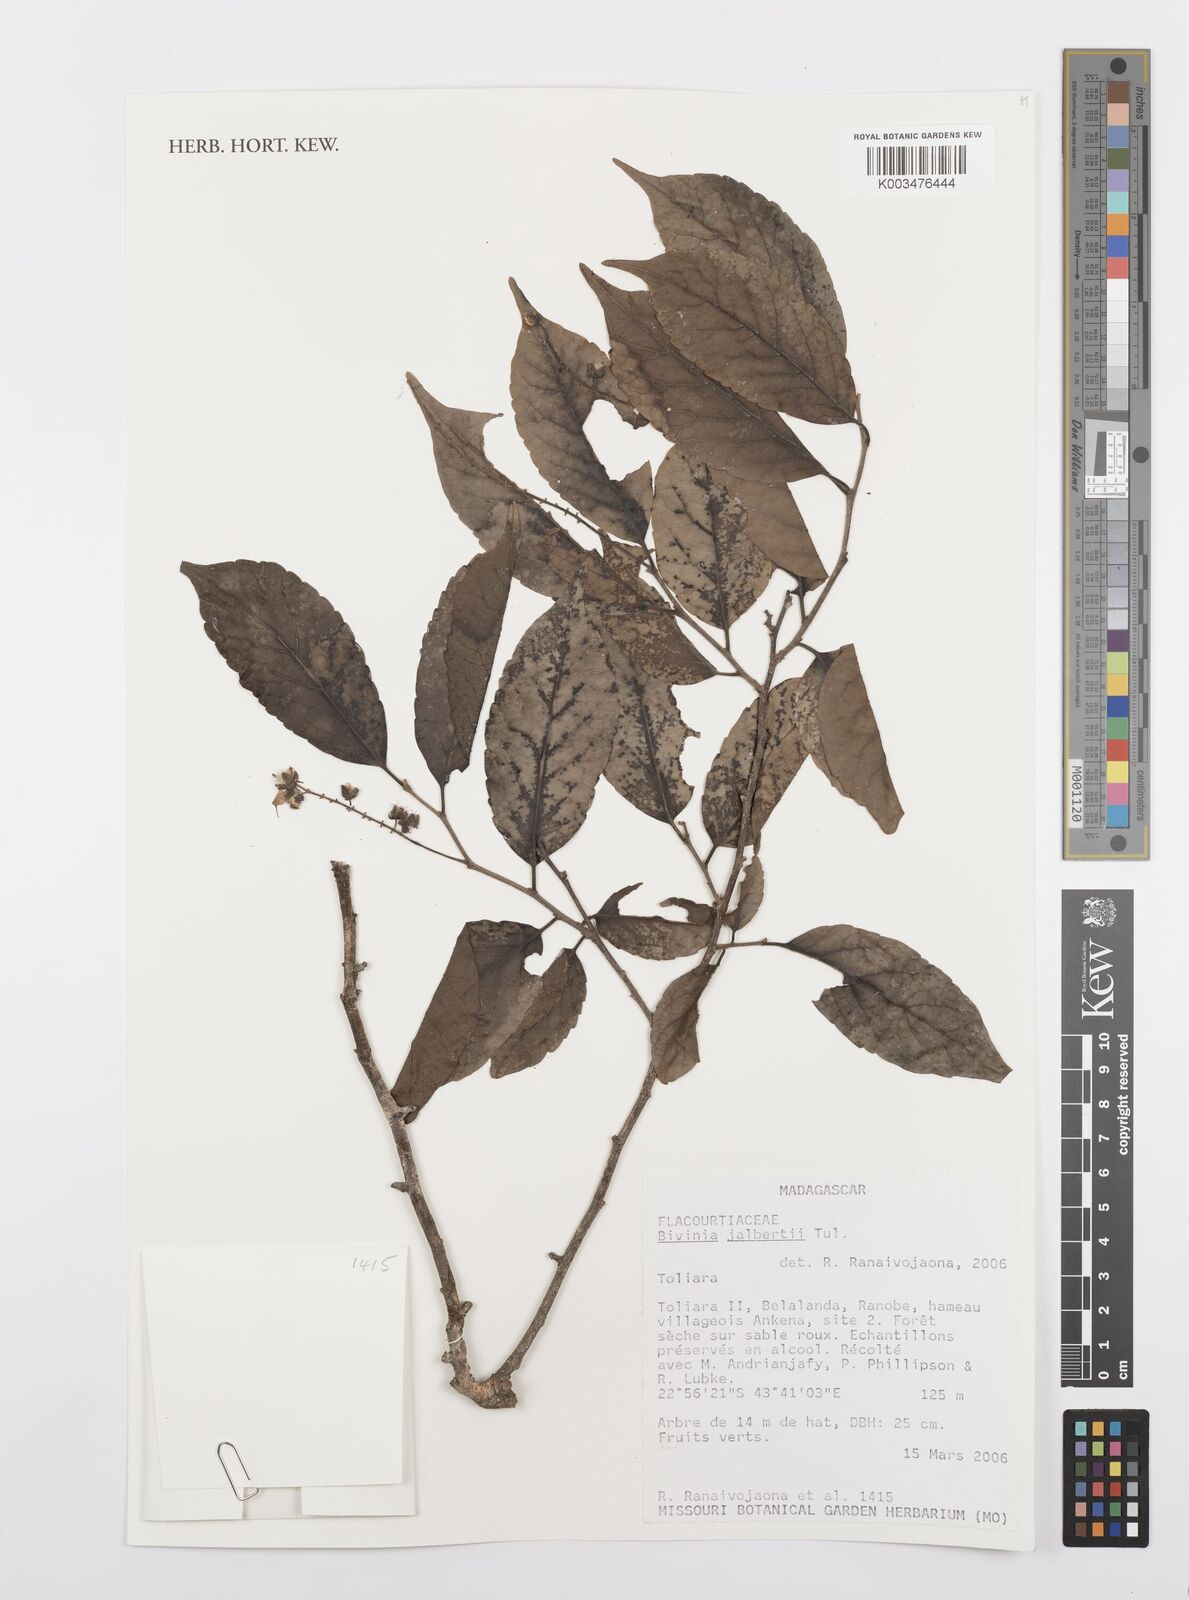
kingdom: Plantae
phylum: Tracheophyta
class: Magnoliopsida
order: Malpighiales
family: Salicaceae
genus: Bivinia
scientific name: Bivinia jalbertii
